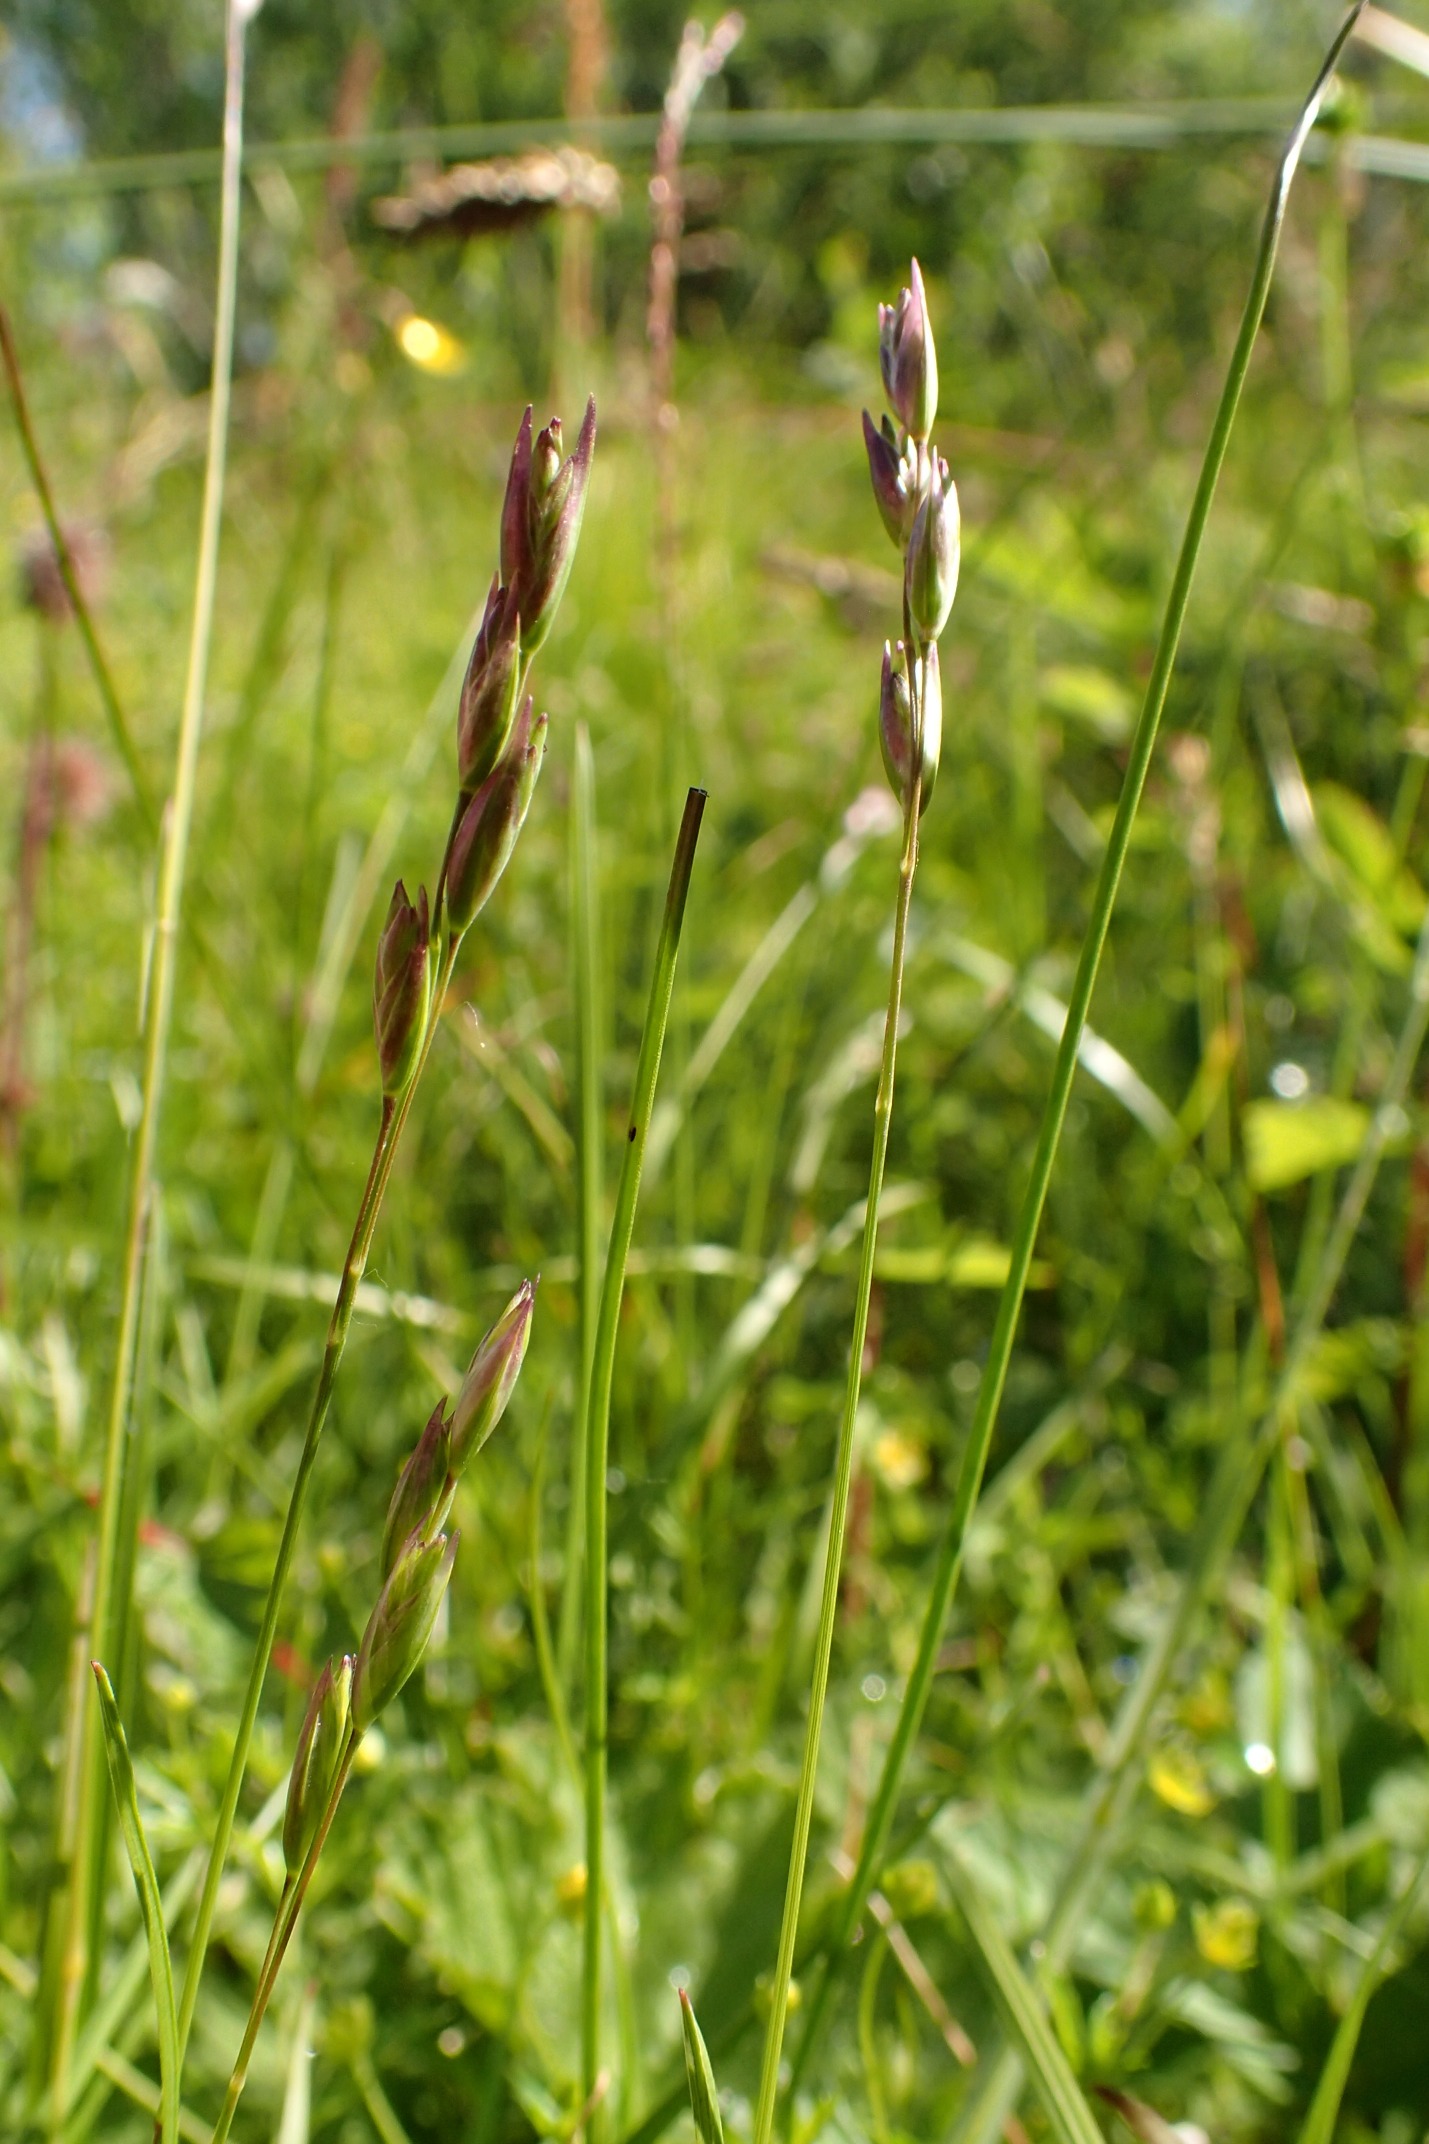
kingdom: Plantae
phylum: Tracheophyta
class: Liliopsida
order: Poales
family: Poaceae
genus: Danthonia
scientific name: Danthonia decumbens
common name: Tandbælg
